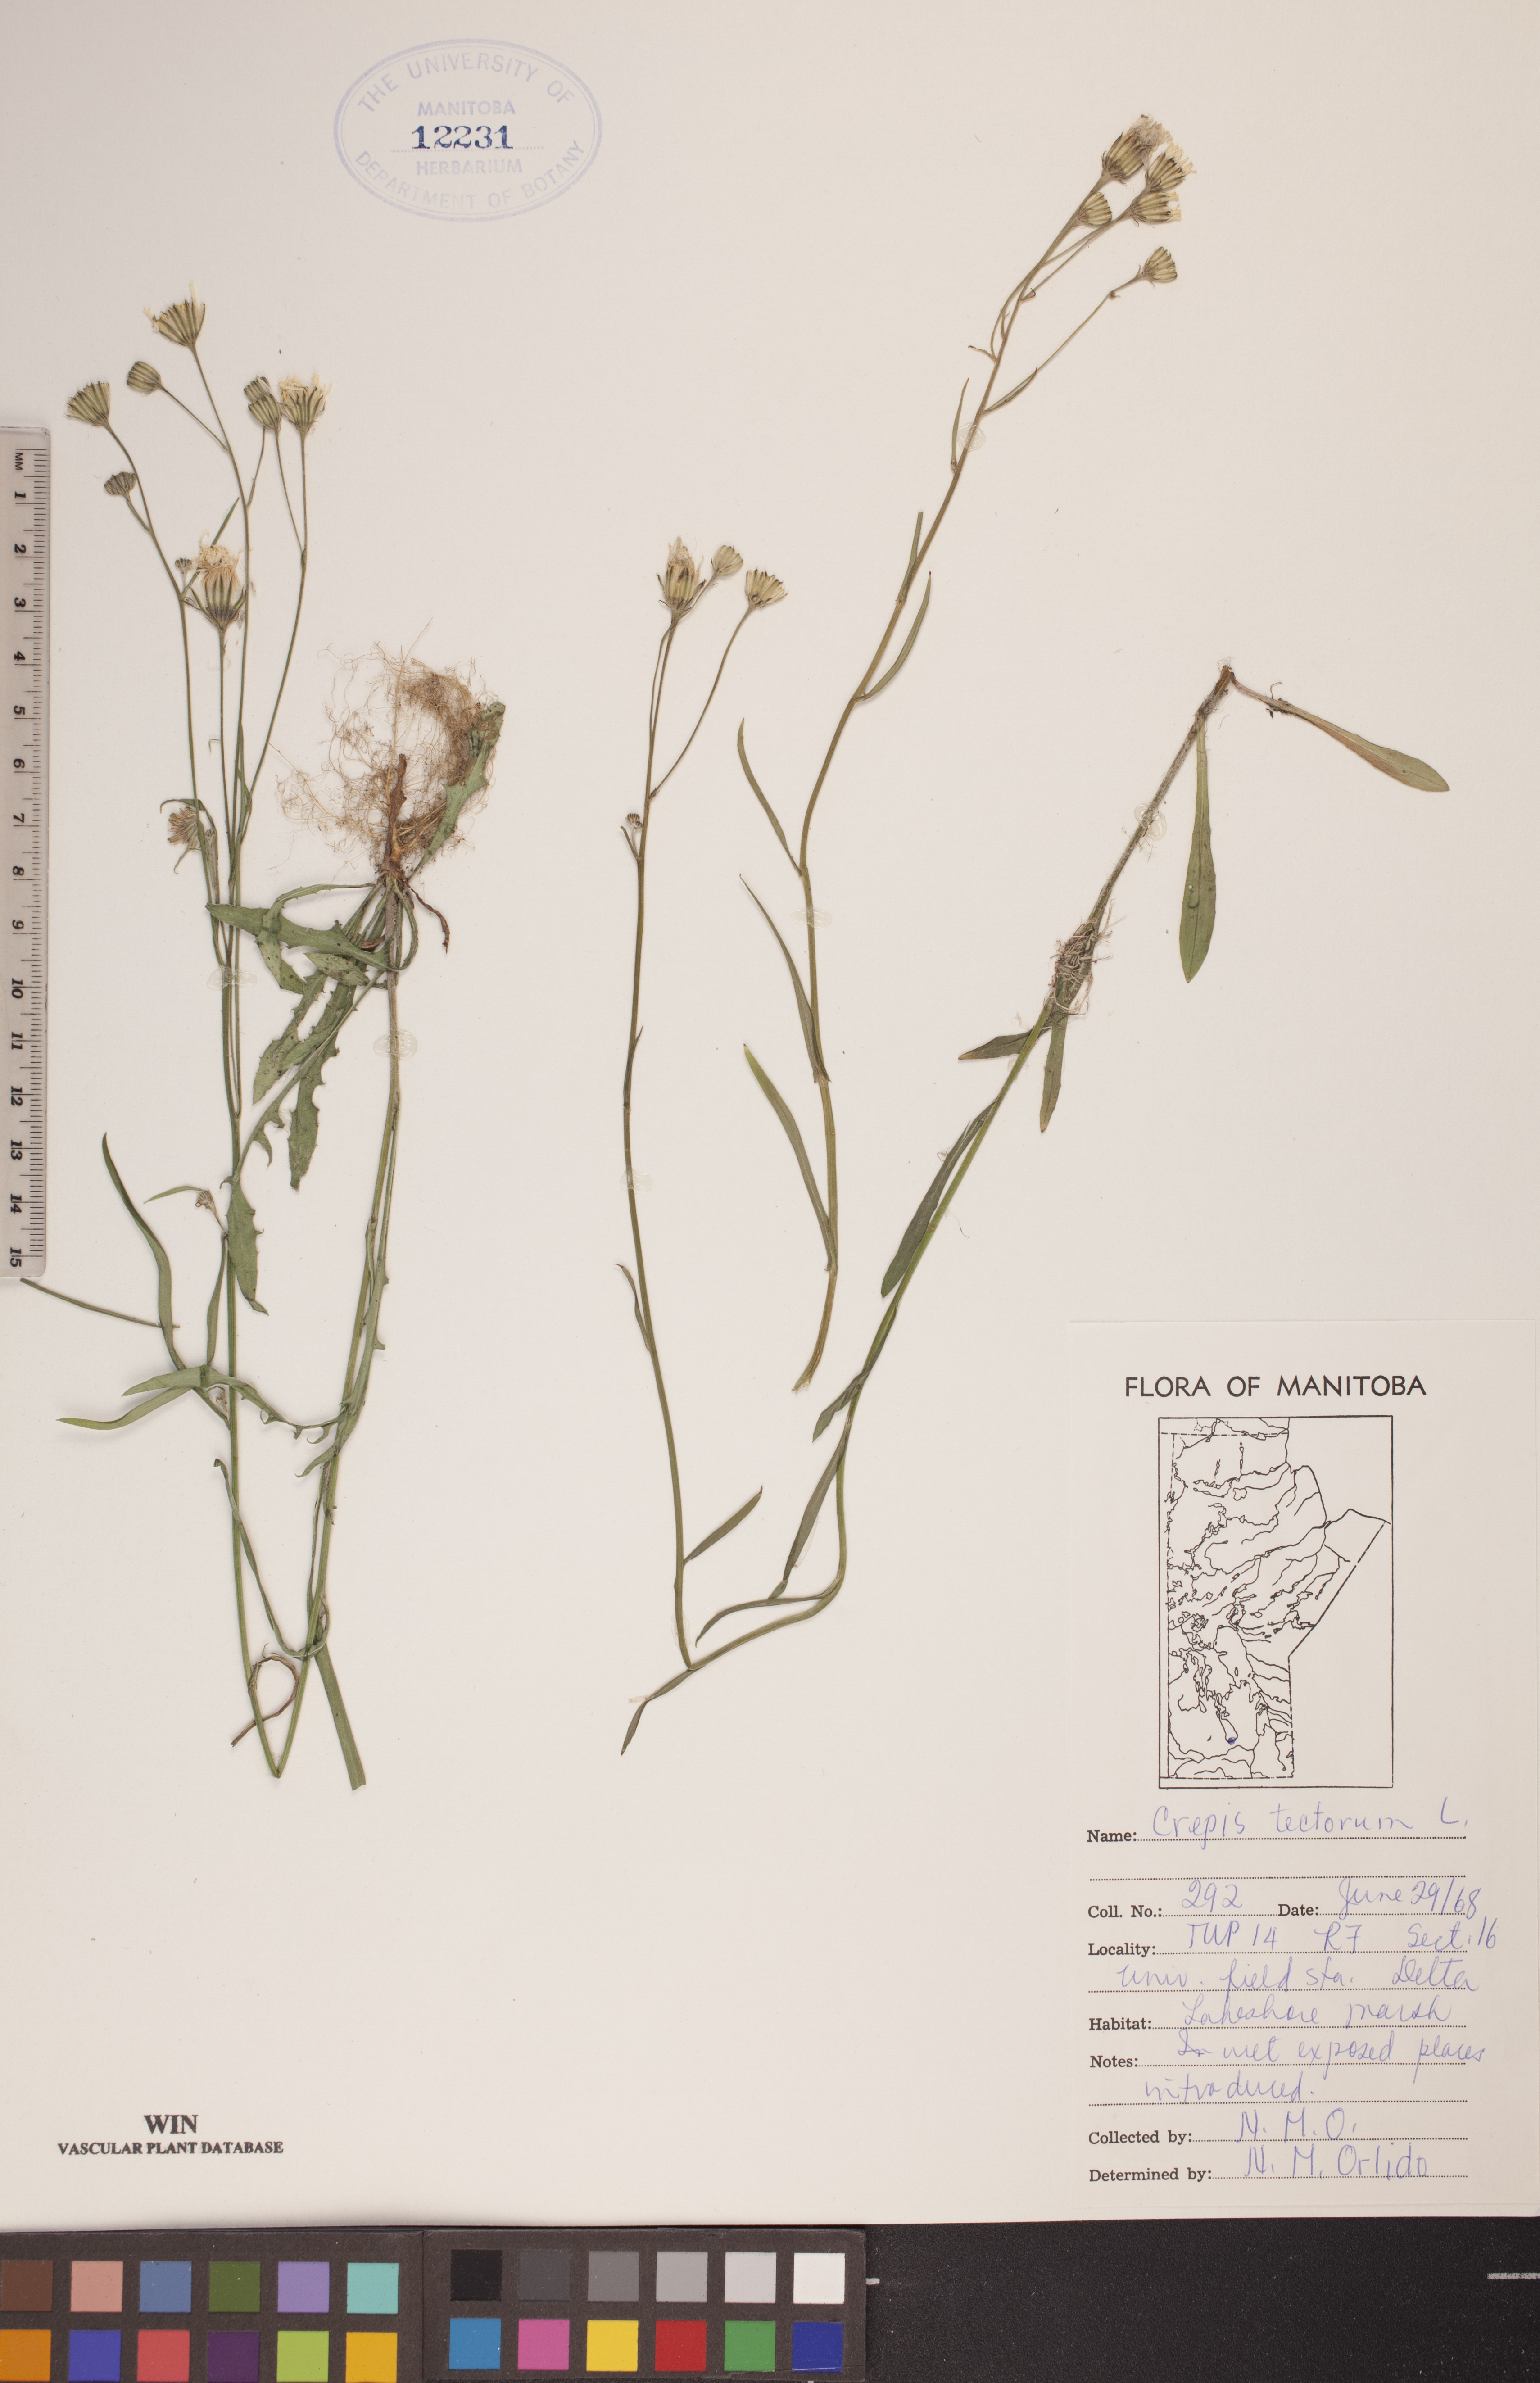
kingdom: Plantae
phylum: Tracheophyta
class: Magnoliopsida
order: Asterales
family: Asteraceae
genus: Crepis
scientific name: Crepis tectorum
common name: Narrow-leaved hawk's-beard
